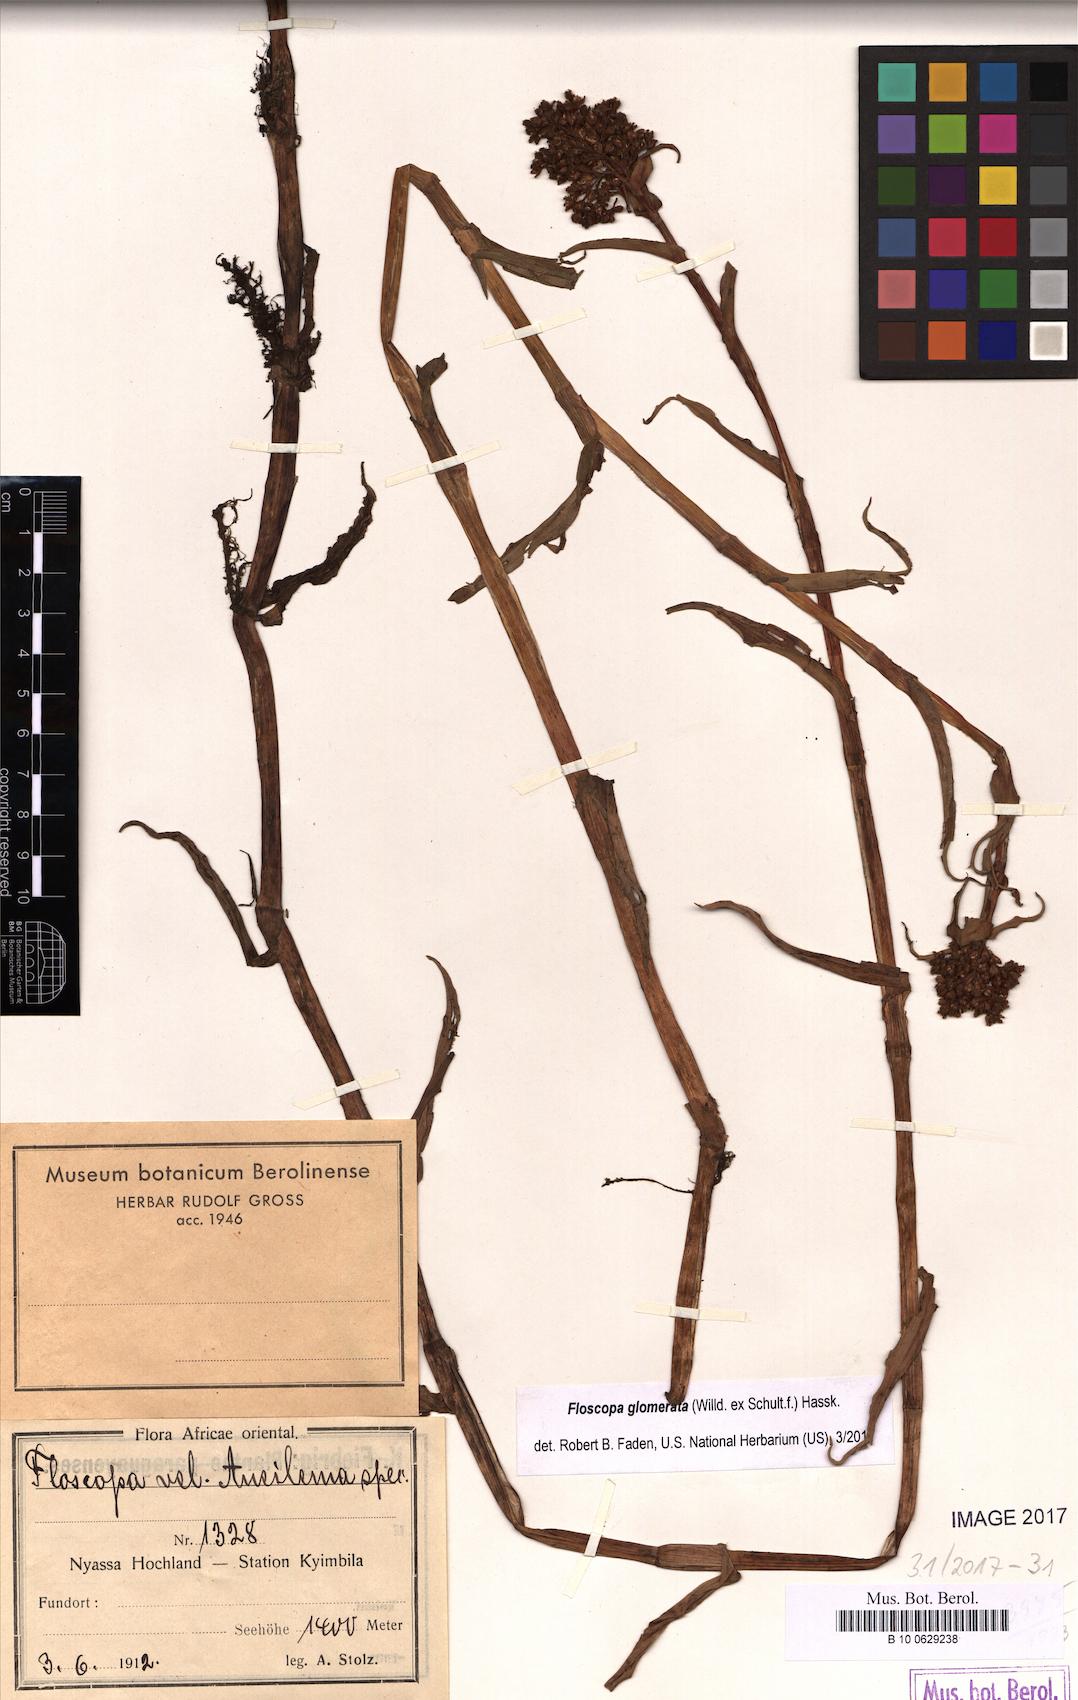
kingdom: Plantae
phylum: Tracheophyta
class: Liliopsida
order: Commelinales
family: Commelinaceae
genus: Floscopa
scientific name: Floscopa glomerata
